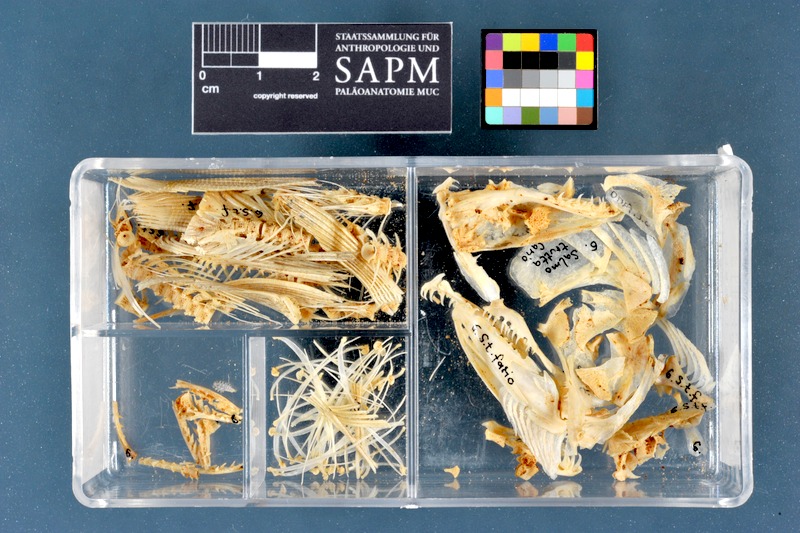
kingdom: Animalia
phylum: Chordata
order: Salmoniformes
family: Salmonidae
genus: Salmo
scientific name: Salmo trutta
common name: Brown trout
